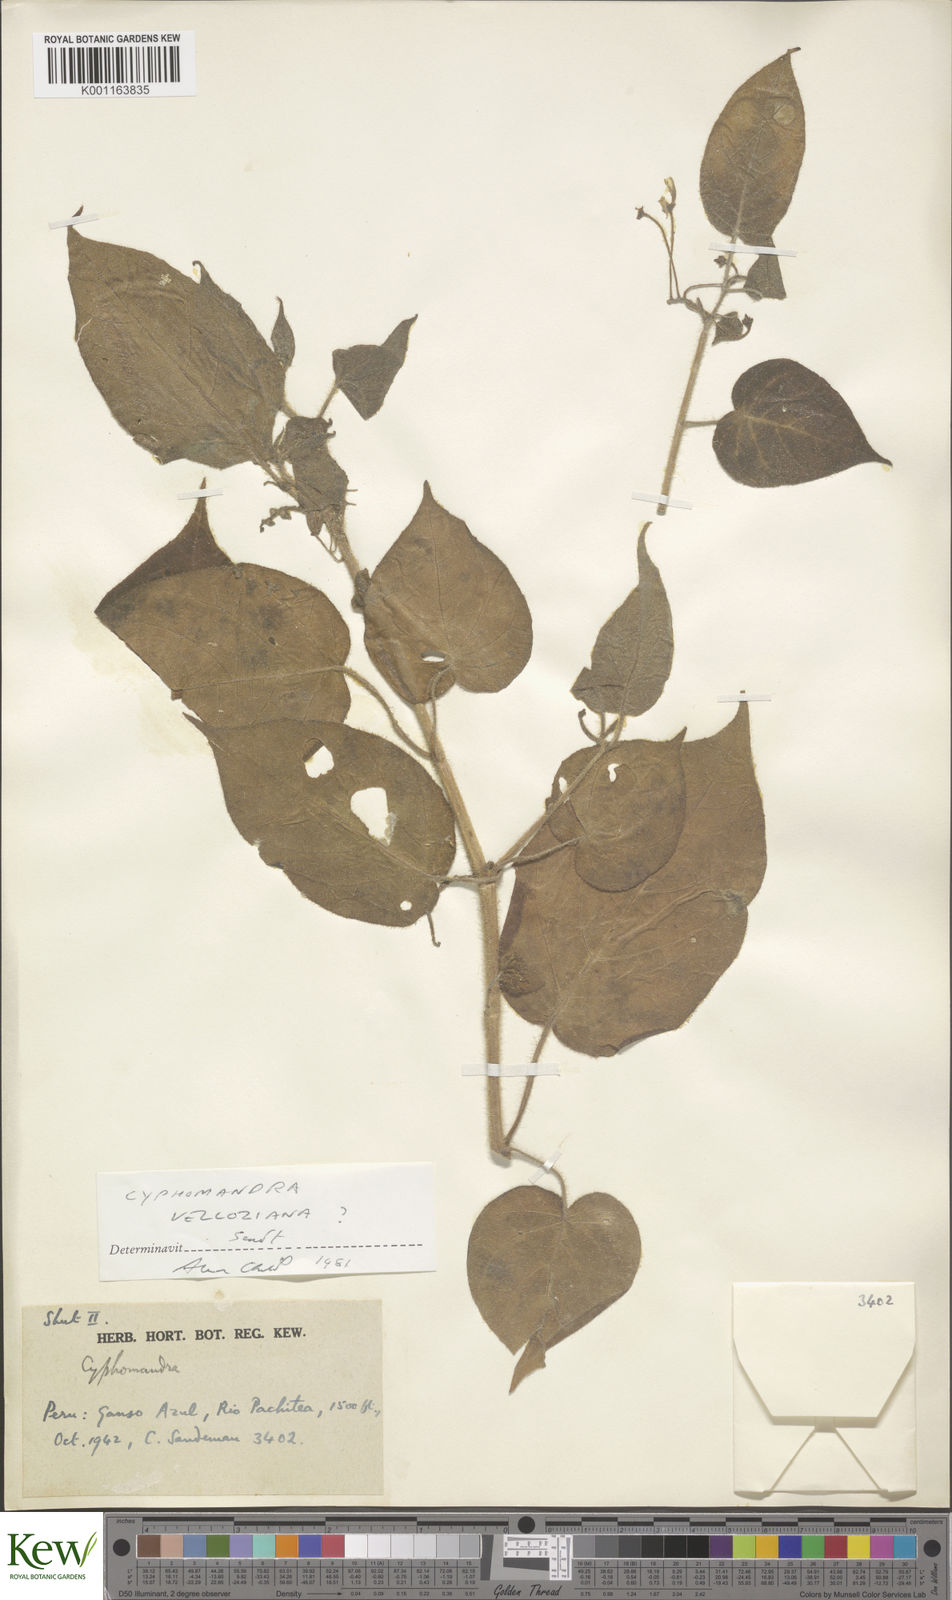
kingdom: Plantae
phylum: Tracheophyta
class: Magnoliopsida
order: Solanales
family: Solanaceae
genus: Solanum
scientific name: Solanum elegans
